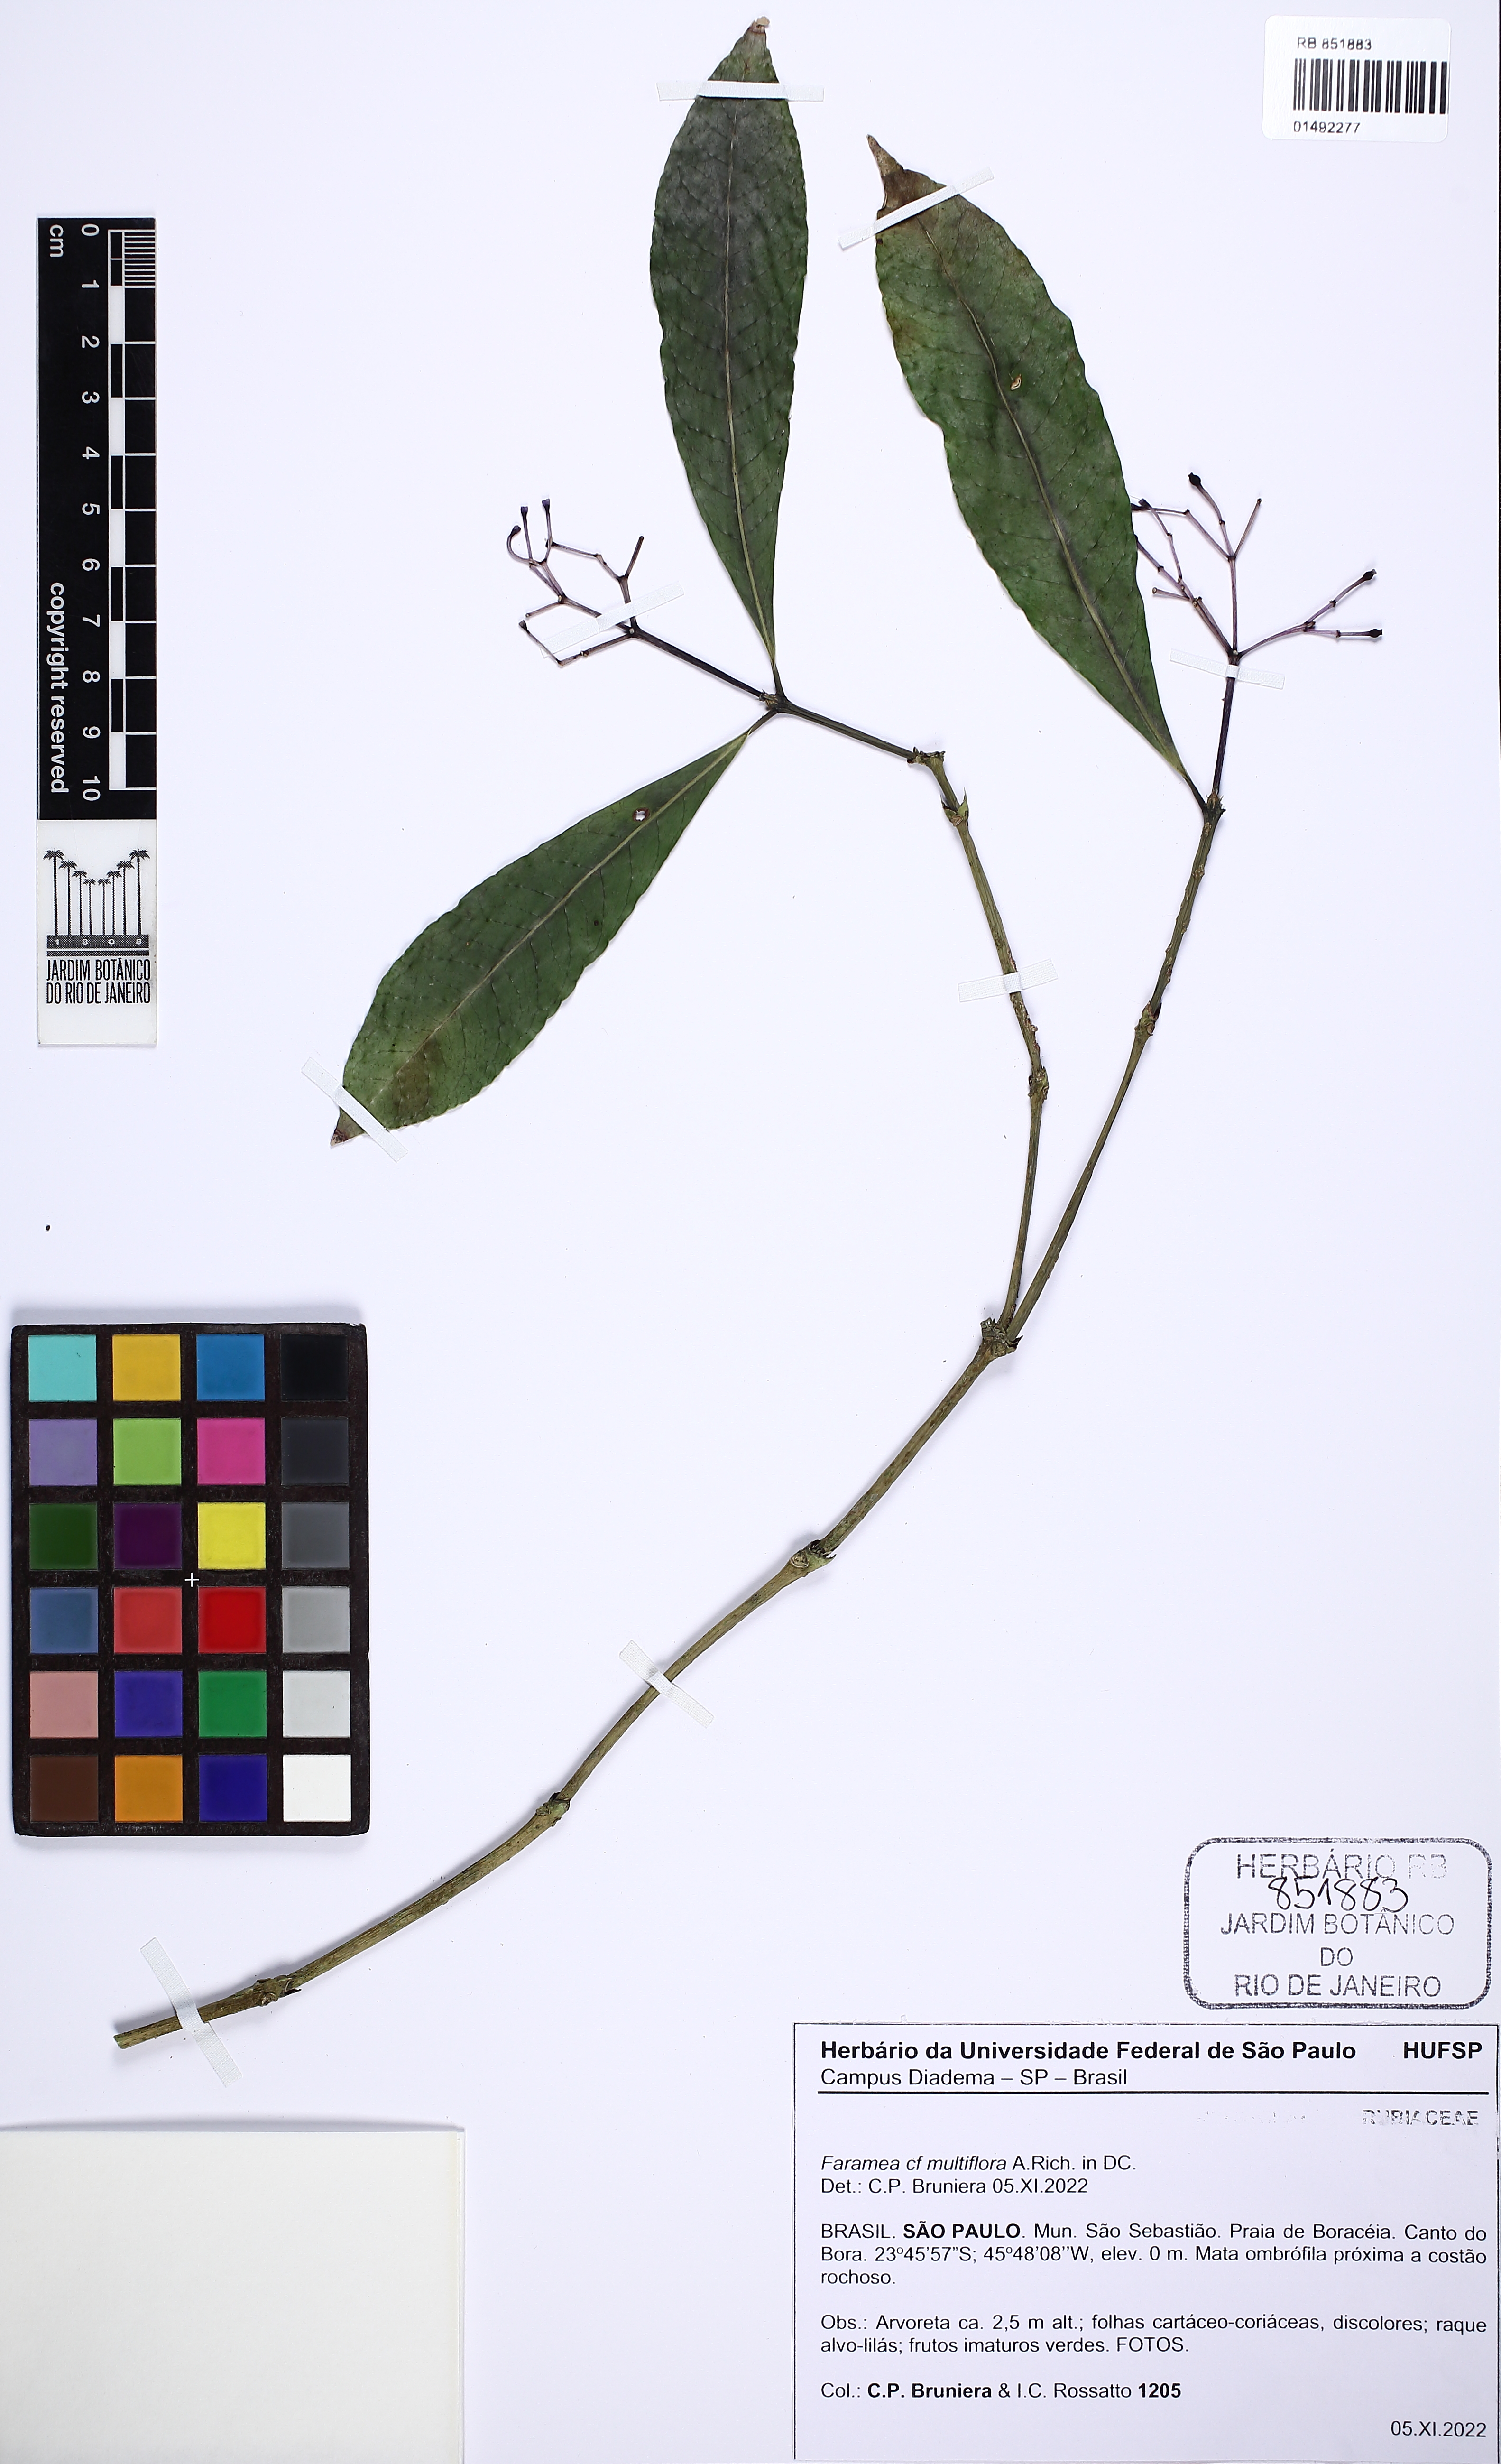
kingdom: Plantae
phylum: Tracheophyta
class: Magnoliopsida
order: Gentianales
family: Rubiaceae
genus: Faramea
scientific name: Faramea multiflora
